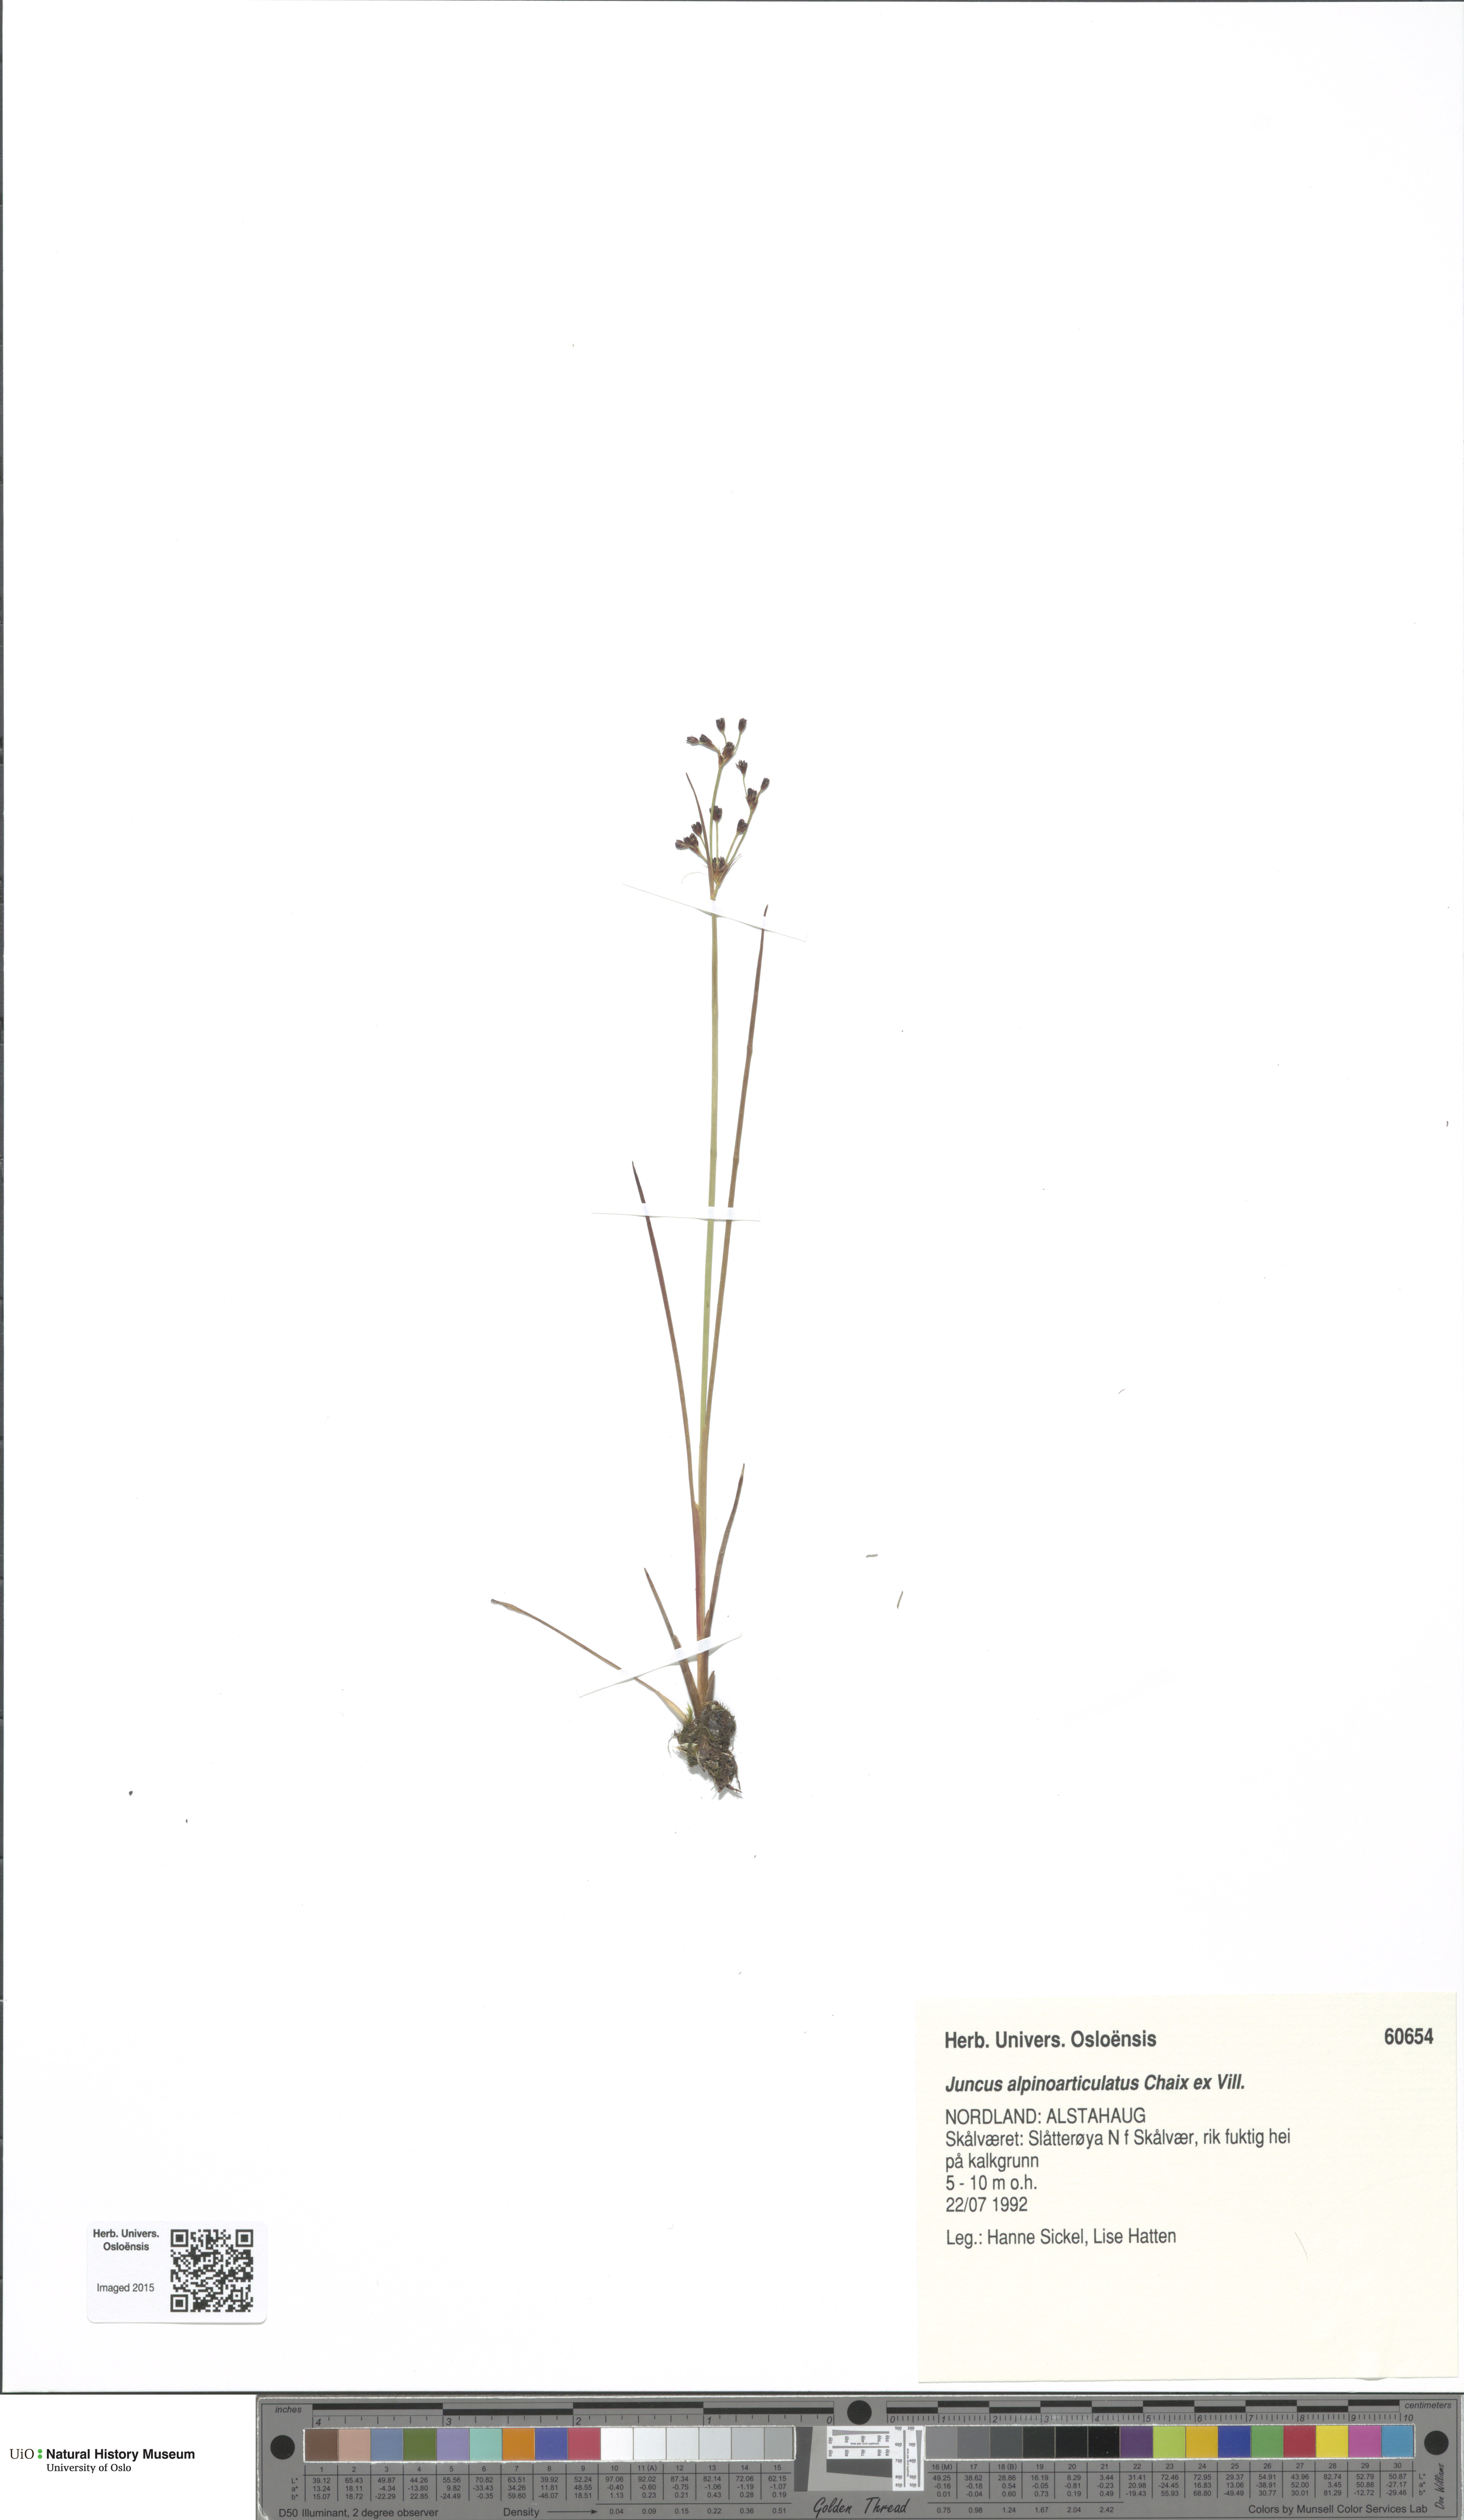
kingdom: Plantae
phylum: Tracheophyta
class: Liliopsida
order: Poales
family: Juncaceae
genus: Juncus
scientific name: Juncus alpinoarticulatus
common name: Alpine rush
